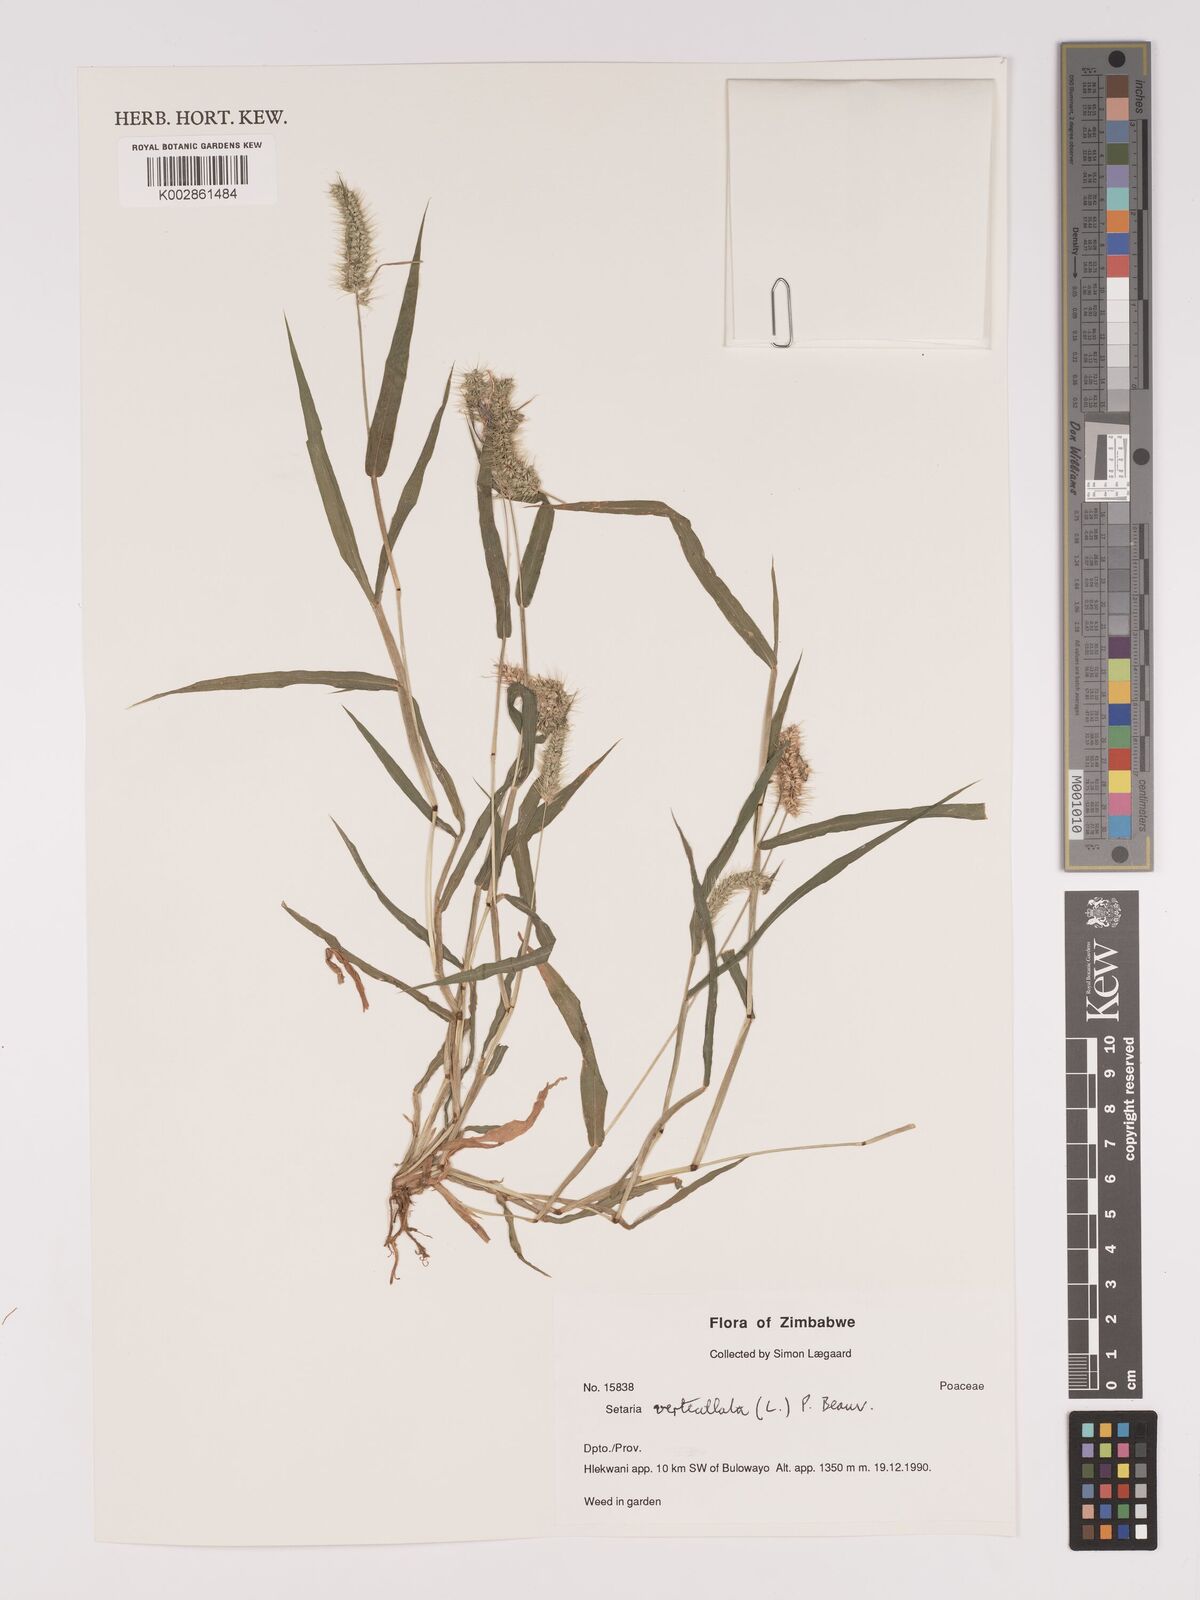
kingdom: Plantae
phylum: Tracheophyta
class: Liliopsida
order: Poales
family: Poaceae
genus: Setaria
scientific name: Setaria verticillata
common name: Hooked bristlegrass
